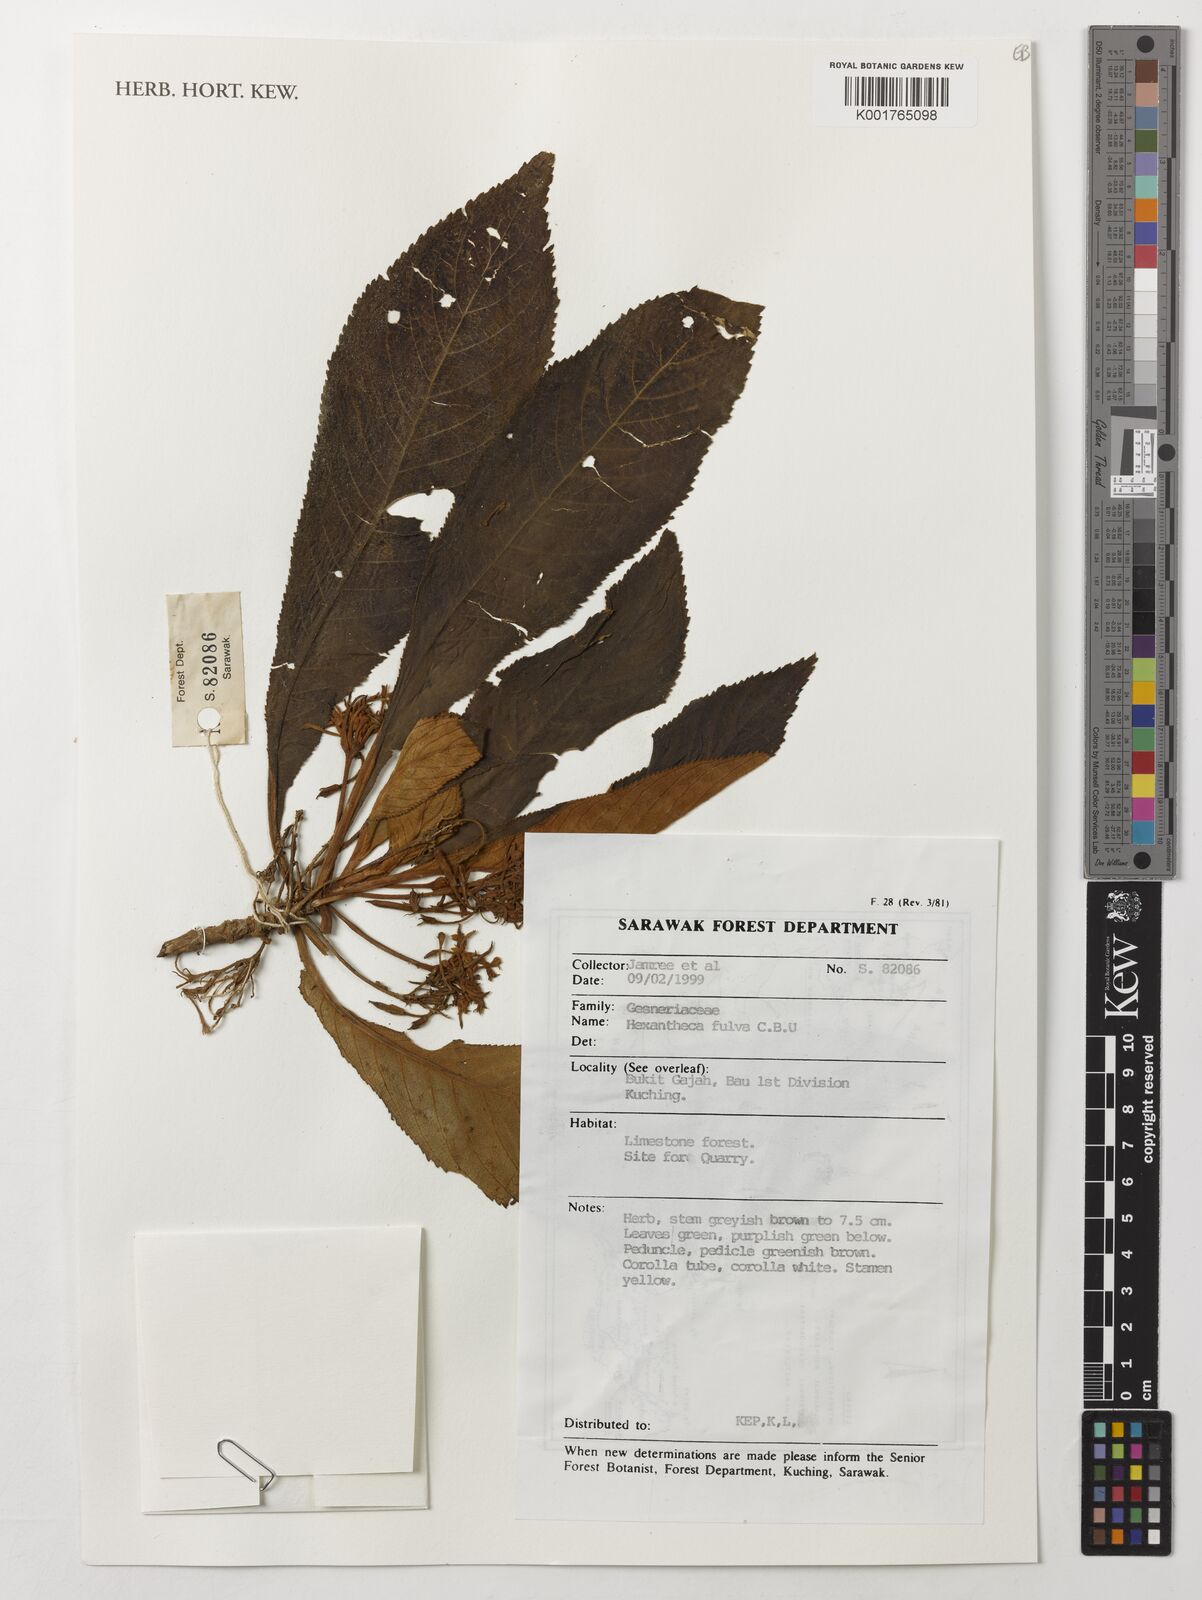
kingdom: Plantae
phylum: Tracheophyta
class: Magnoliopsida
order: Lamiales
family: Gesneriaceae
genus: Hexatheca
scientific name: Hexatheca fulva
